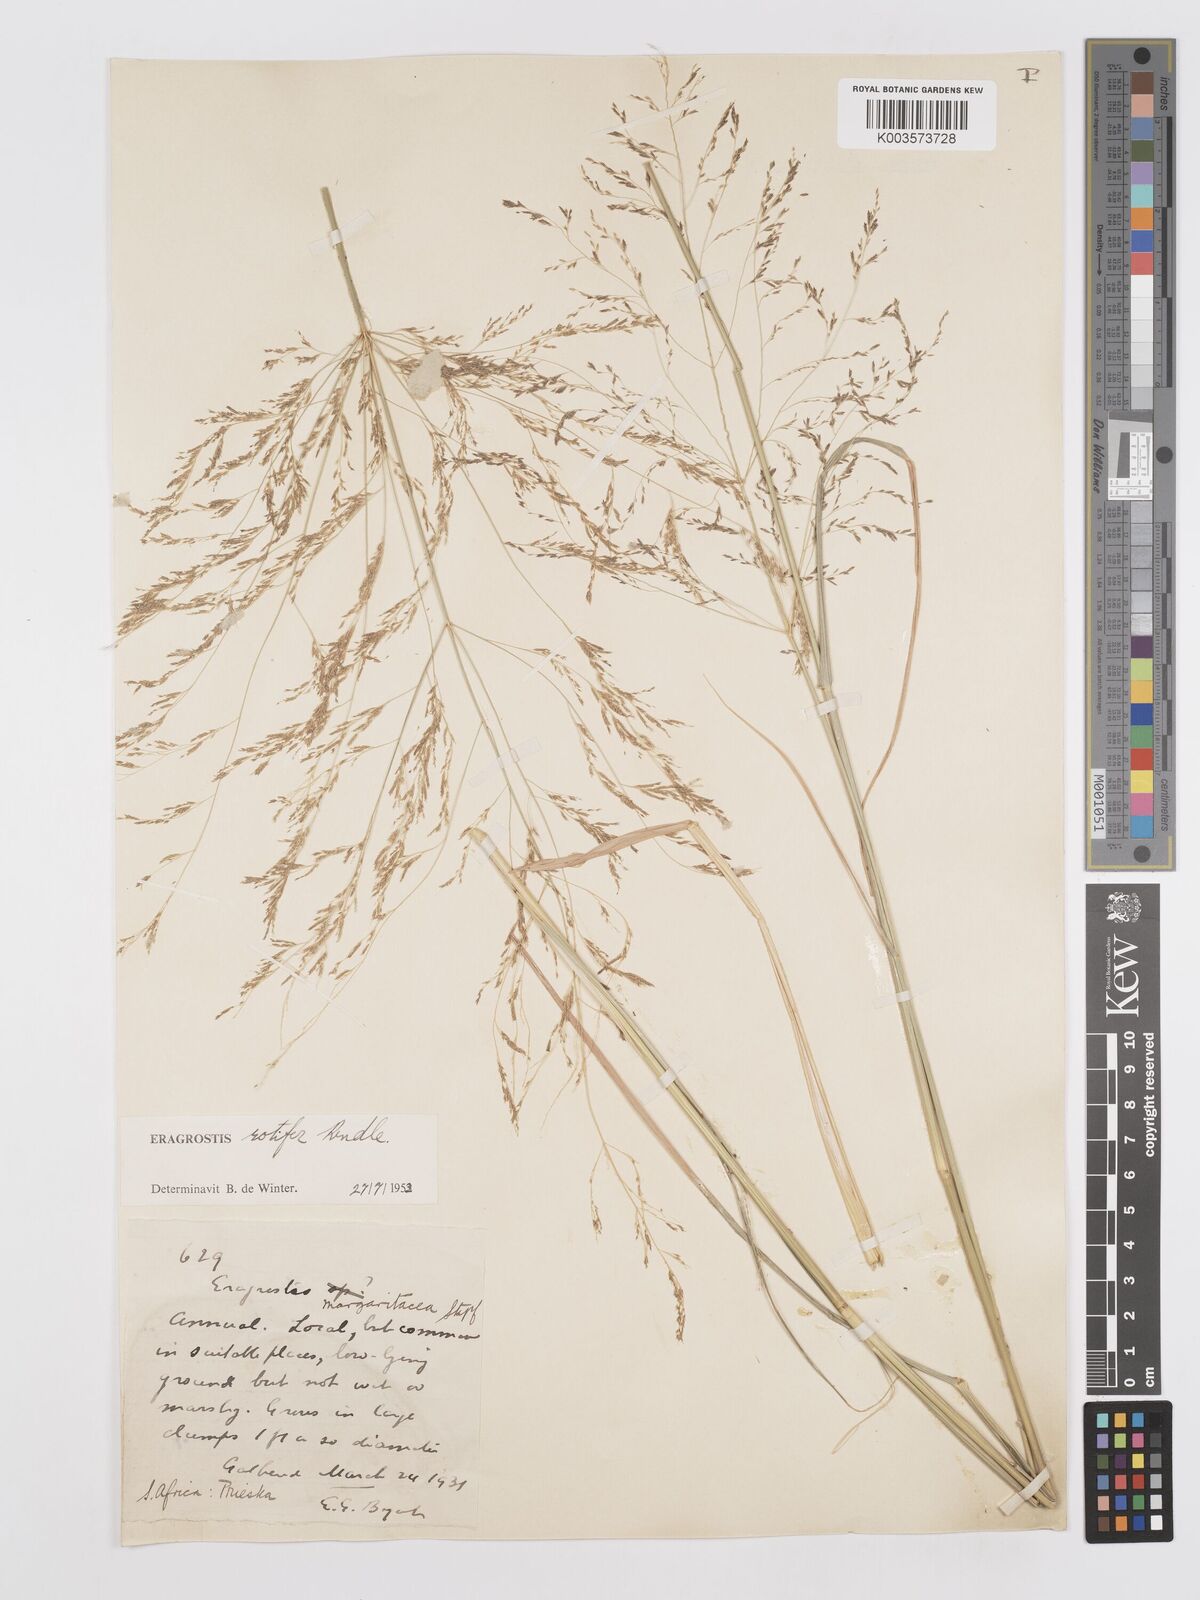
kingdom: Plantae
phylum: Tracheophyta
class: Liliopsida
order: Poales
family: Poaceae
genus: Eragrostis
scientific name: Eragrostis rotifer
